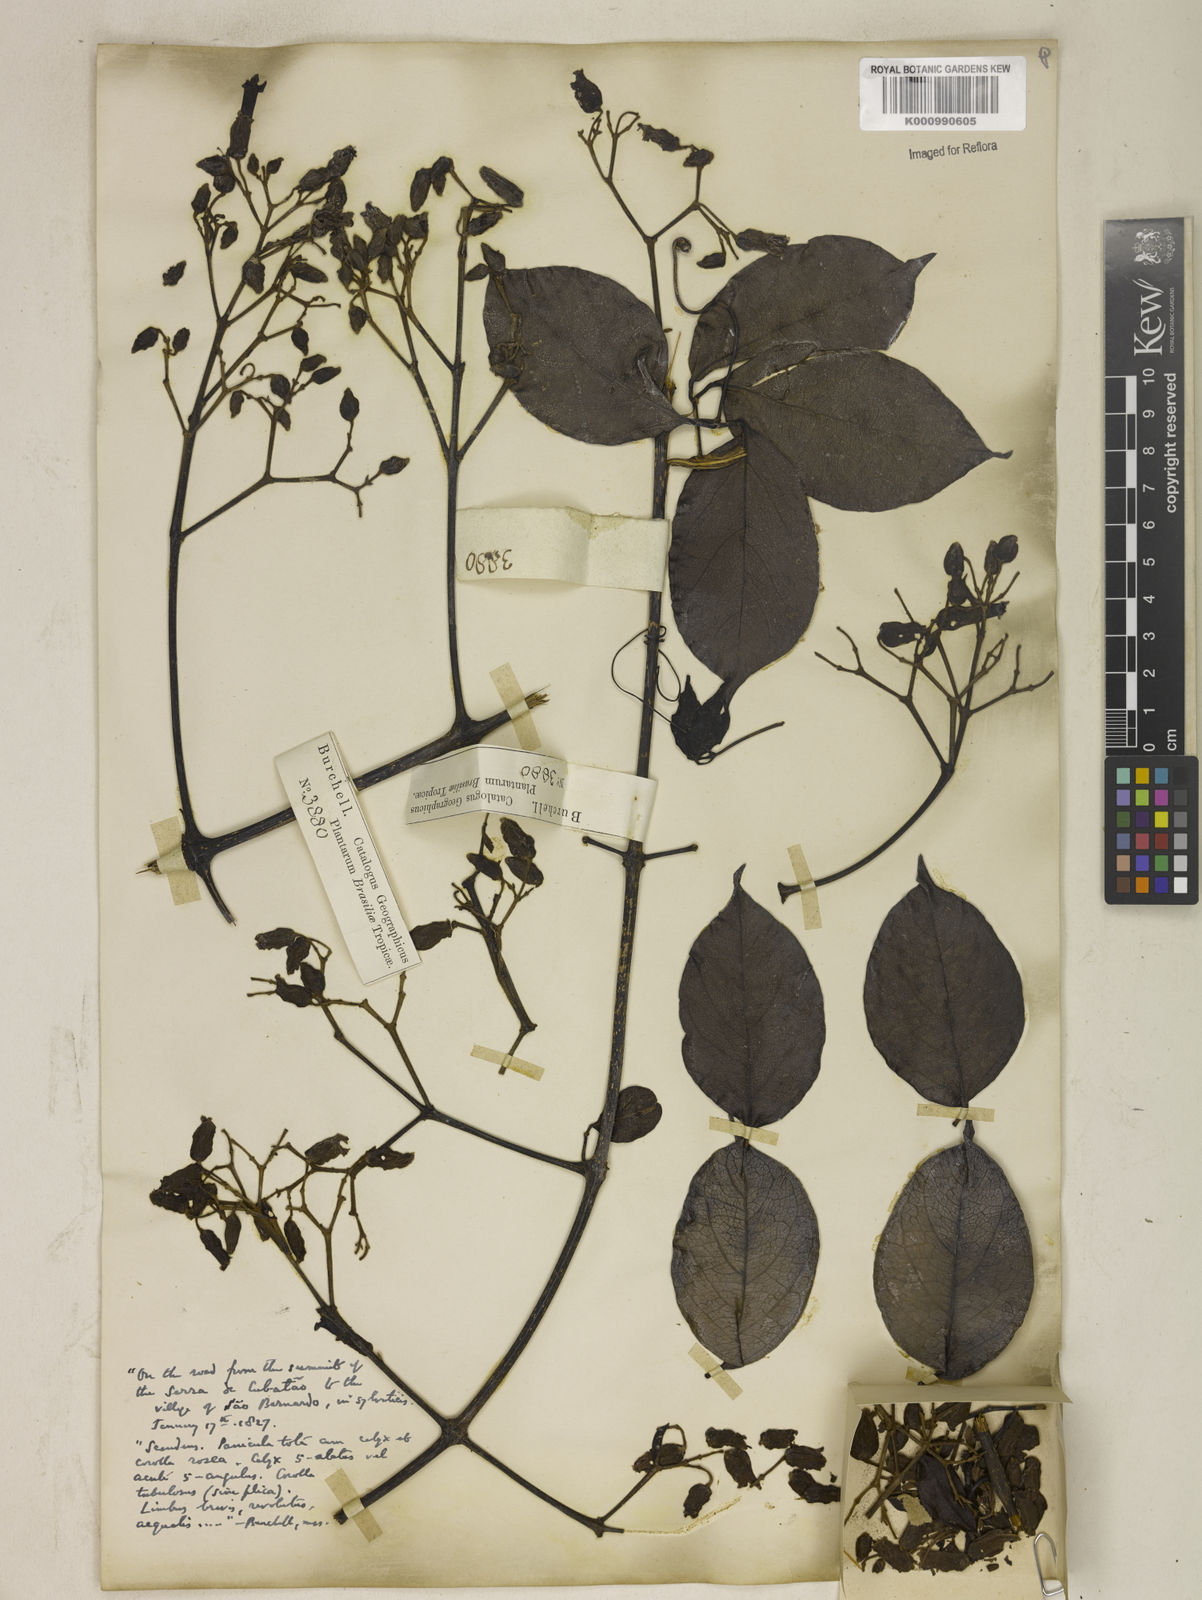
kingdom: Plantae
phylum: Tracheophyta
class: Magnoliopsida
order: Lamiales
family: Bignoniaceae
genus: Fridericia
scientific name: Fridericia speciosa
